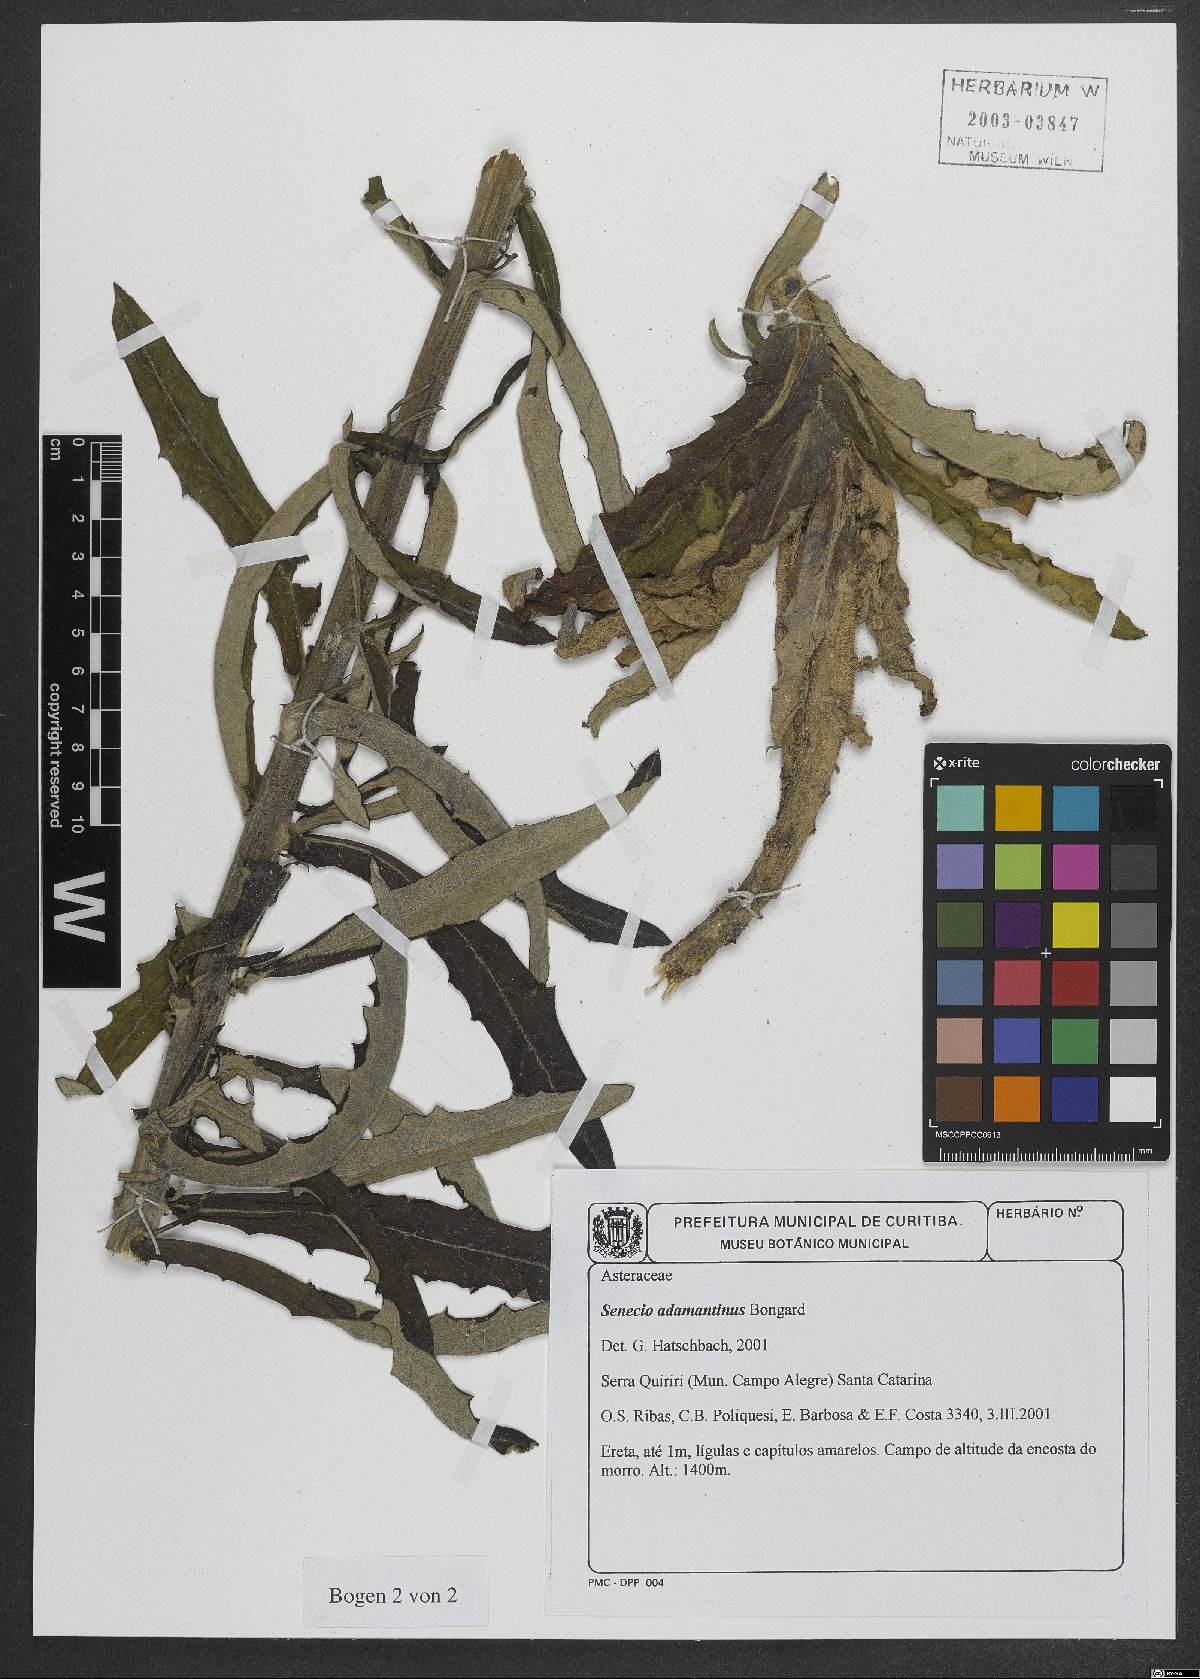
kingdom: Plantae
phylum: Tracheophyta
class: Magnoliopsida
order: Asterales
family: Asteraceae
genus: Senecio
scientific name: Senecio adamantinus
